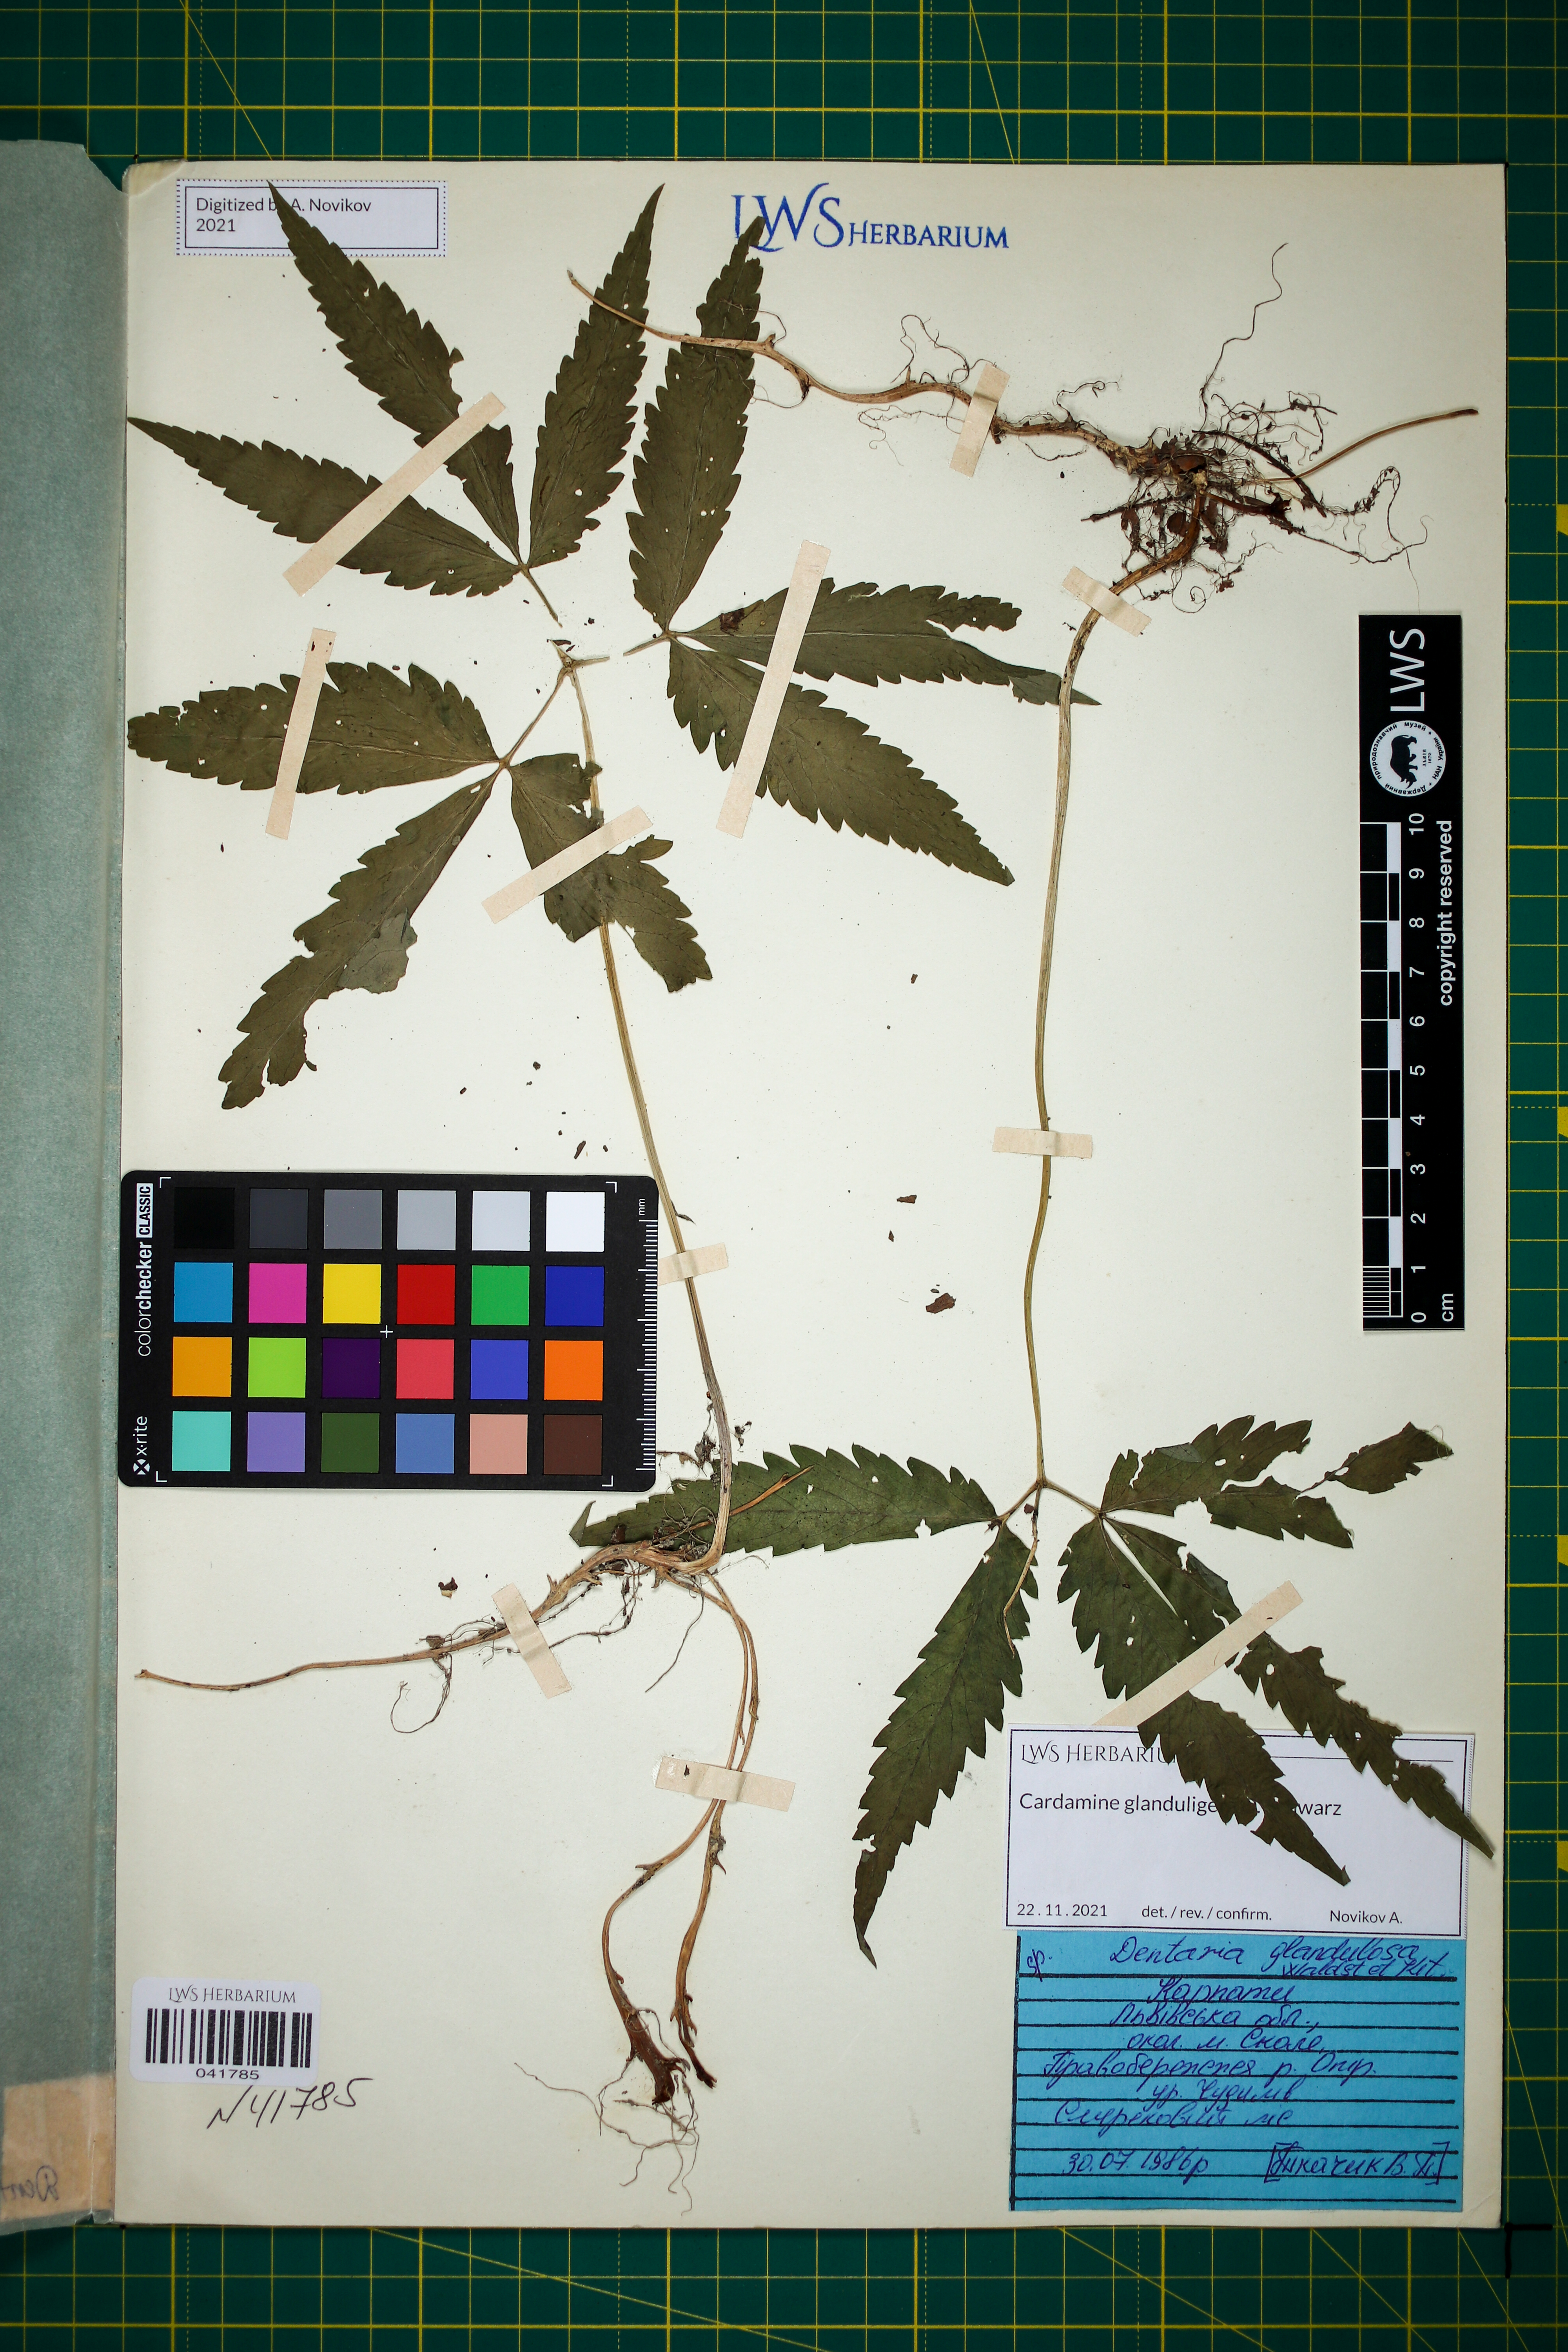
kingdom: Plantae
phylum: Tracheophyta
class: Magnoliopsida
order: Brassicales
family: Brassicaceae
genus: Cardamine
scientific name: Cardamine glanduligera
